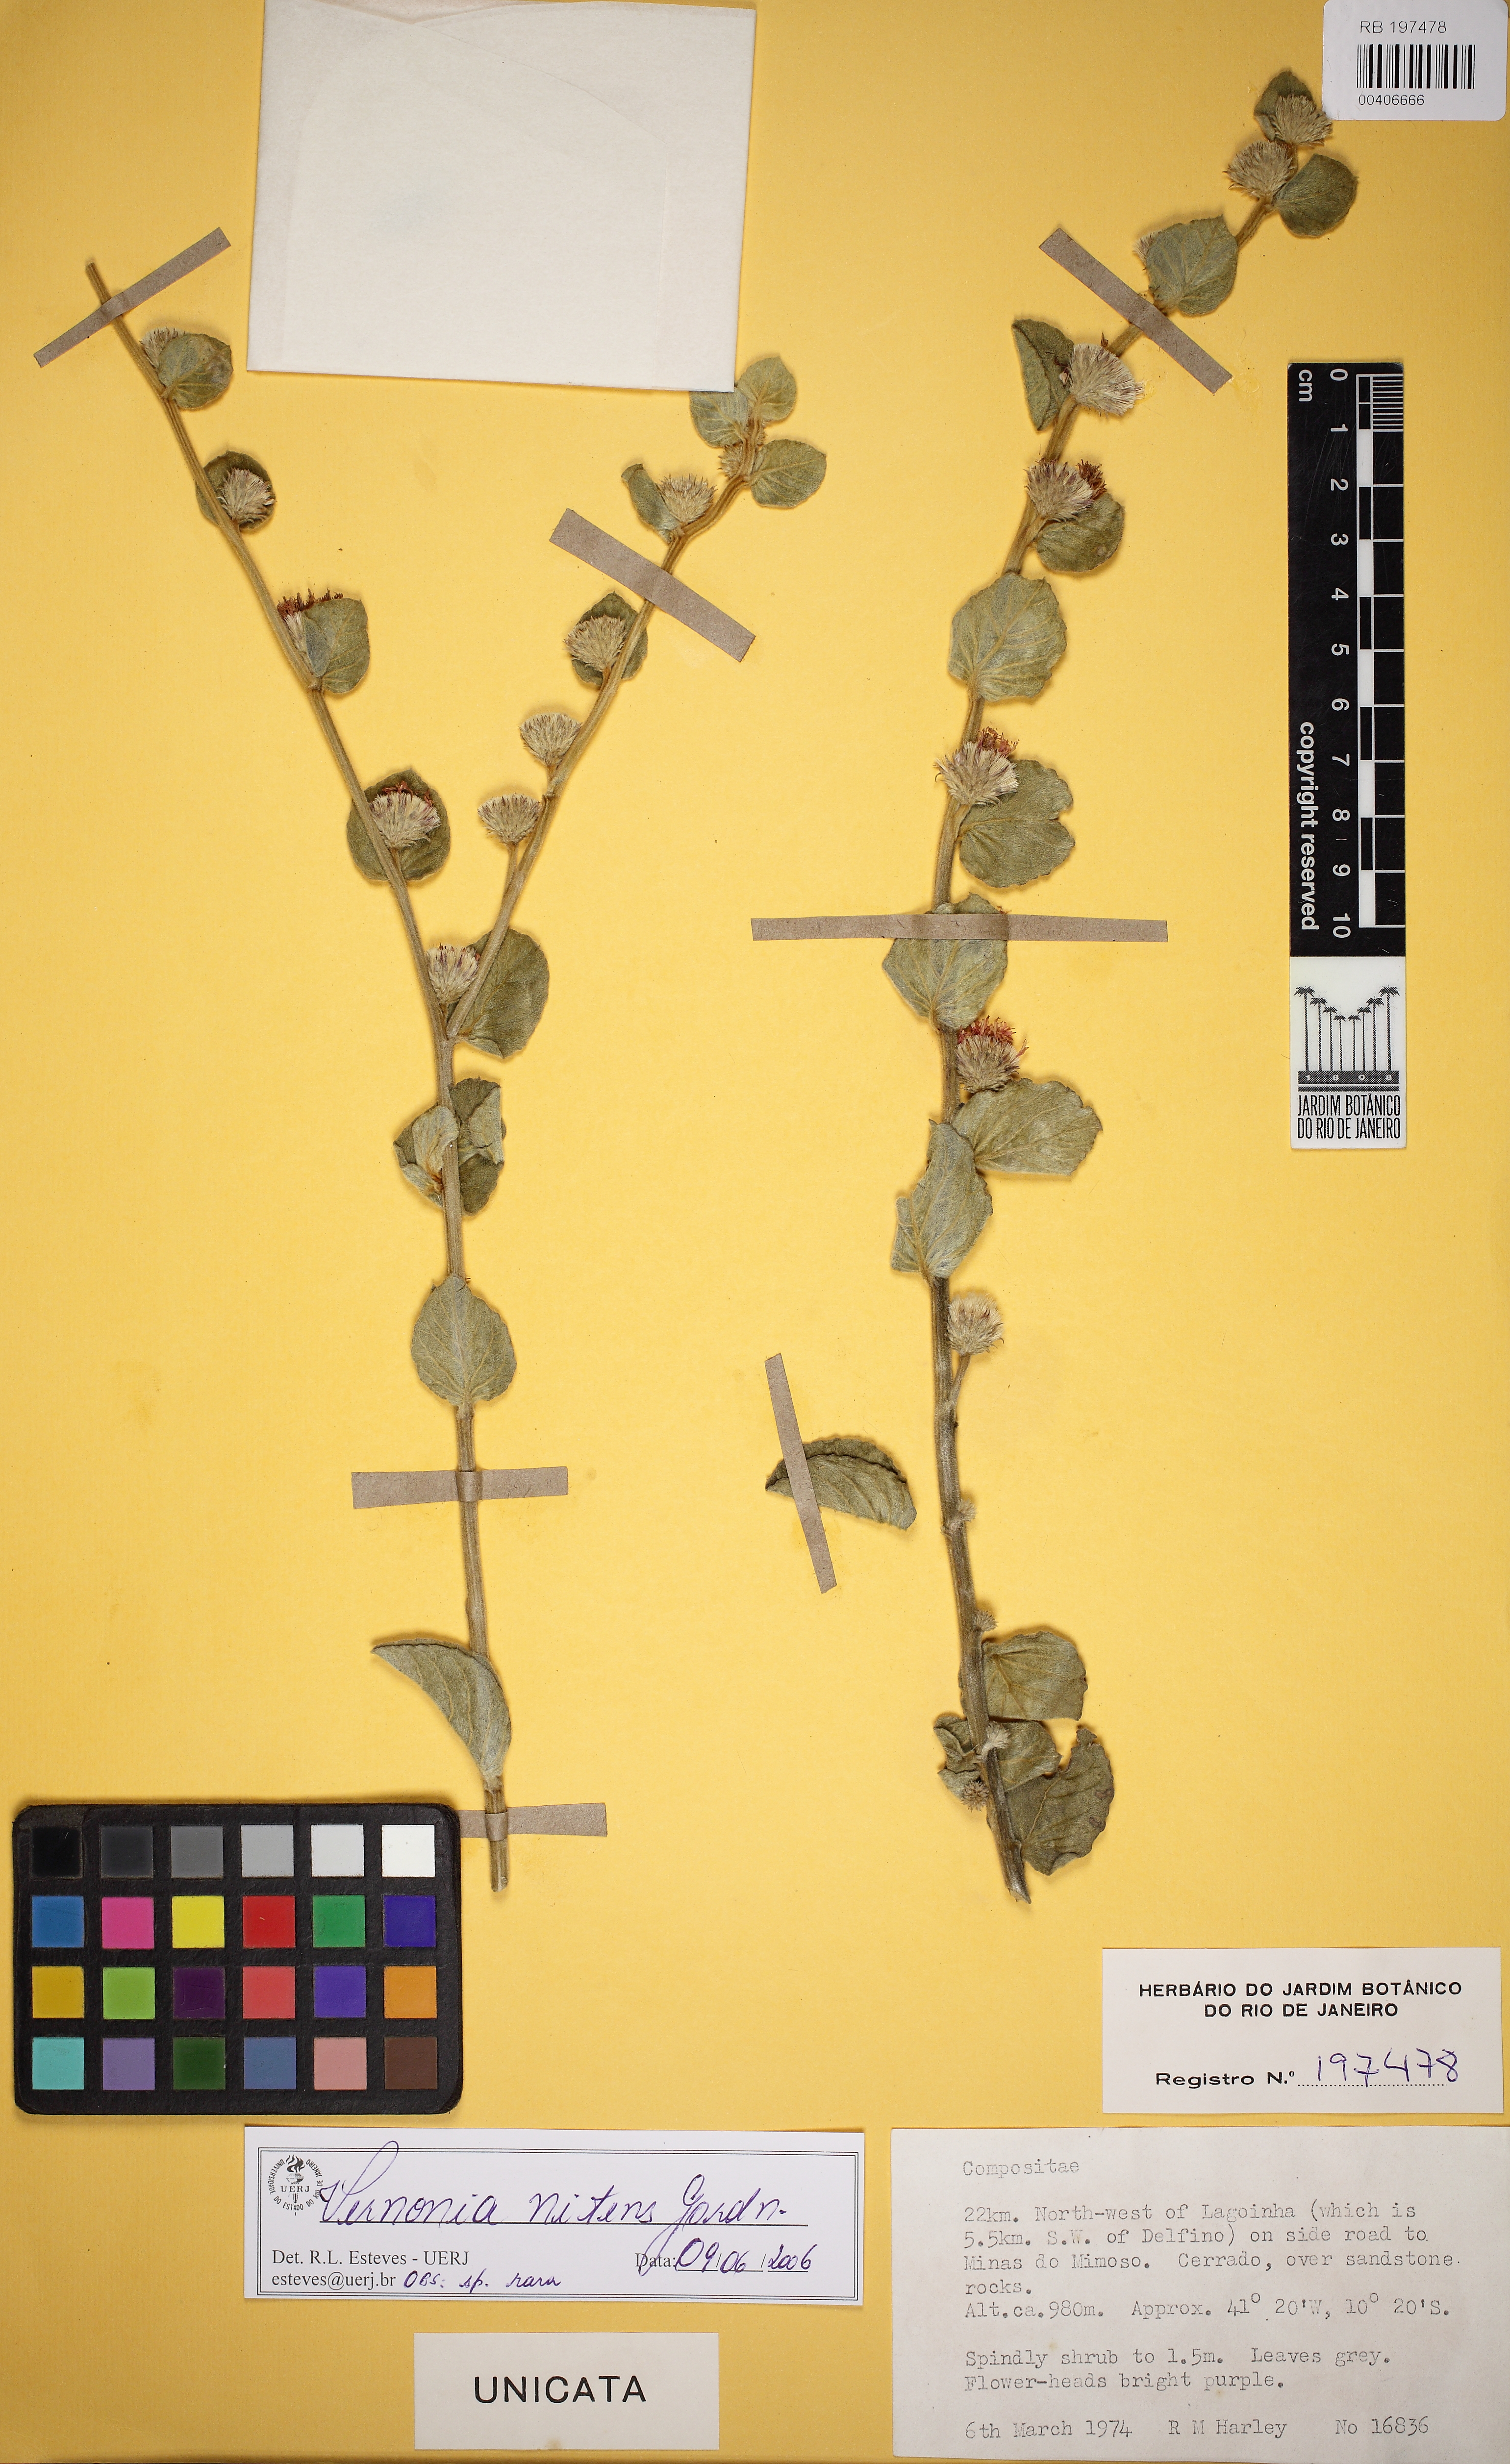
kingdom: Plantae
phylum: Tracheophyta
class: Magnoliopsida
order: Asterales
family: Asteraceae
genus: Lepidaploa
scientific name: Lepidaploa nitens
